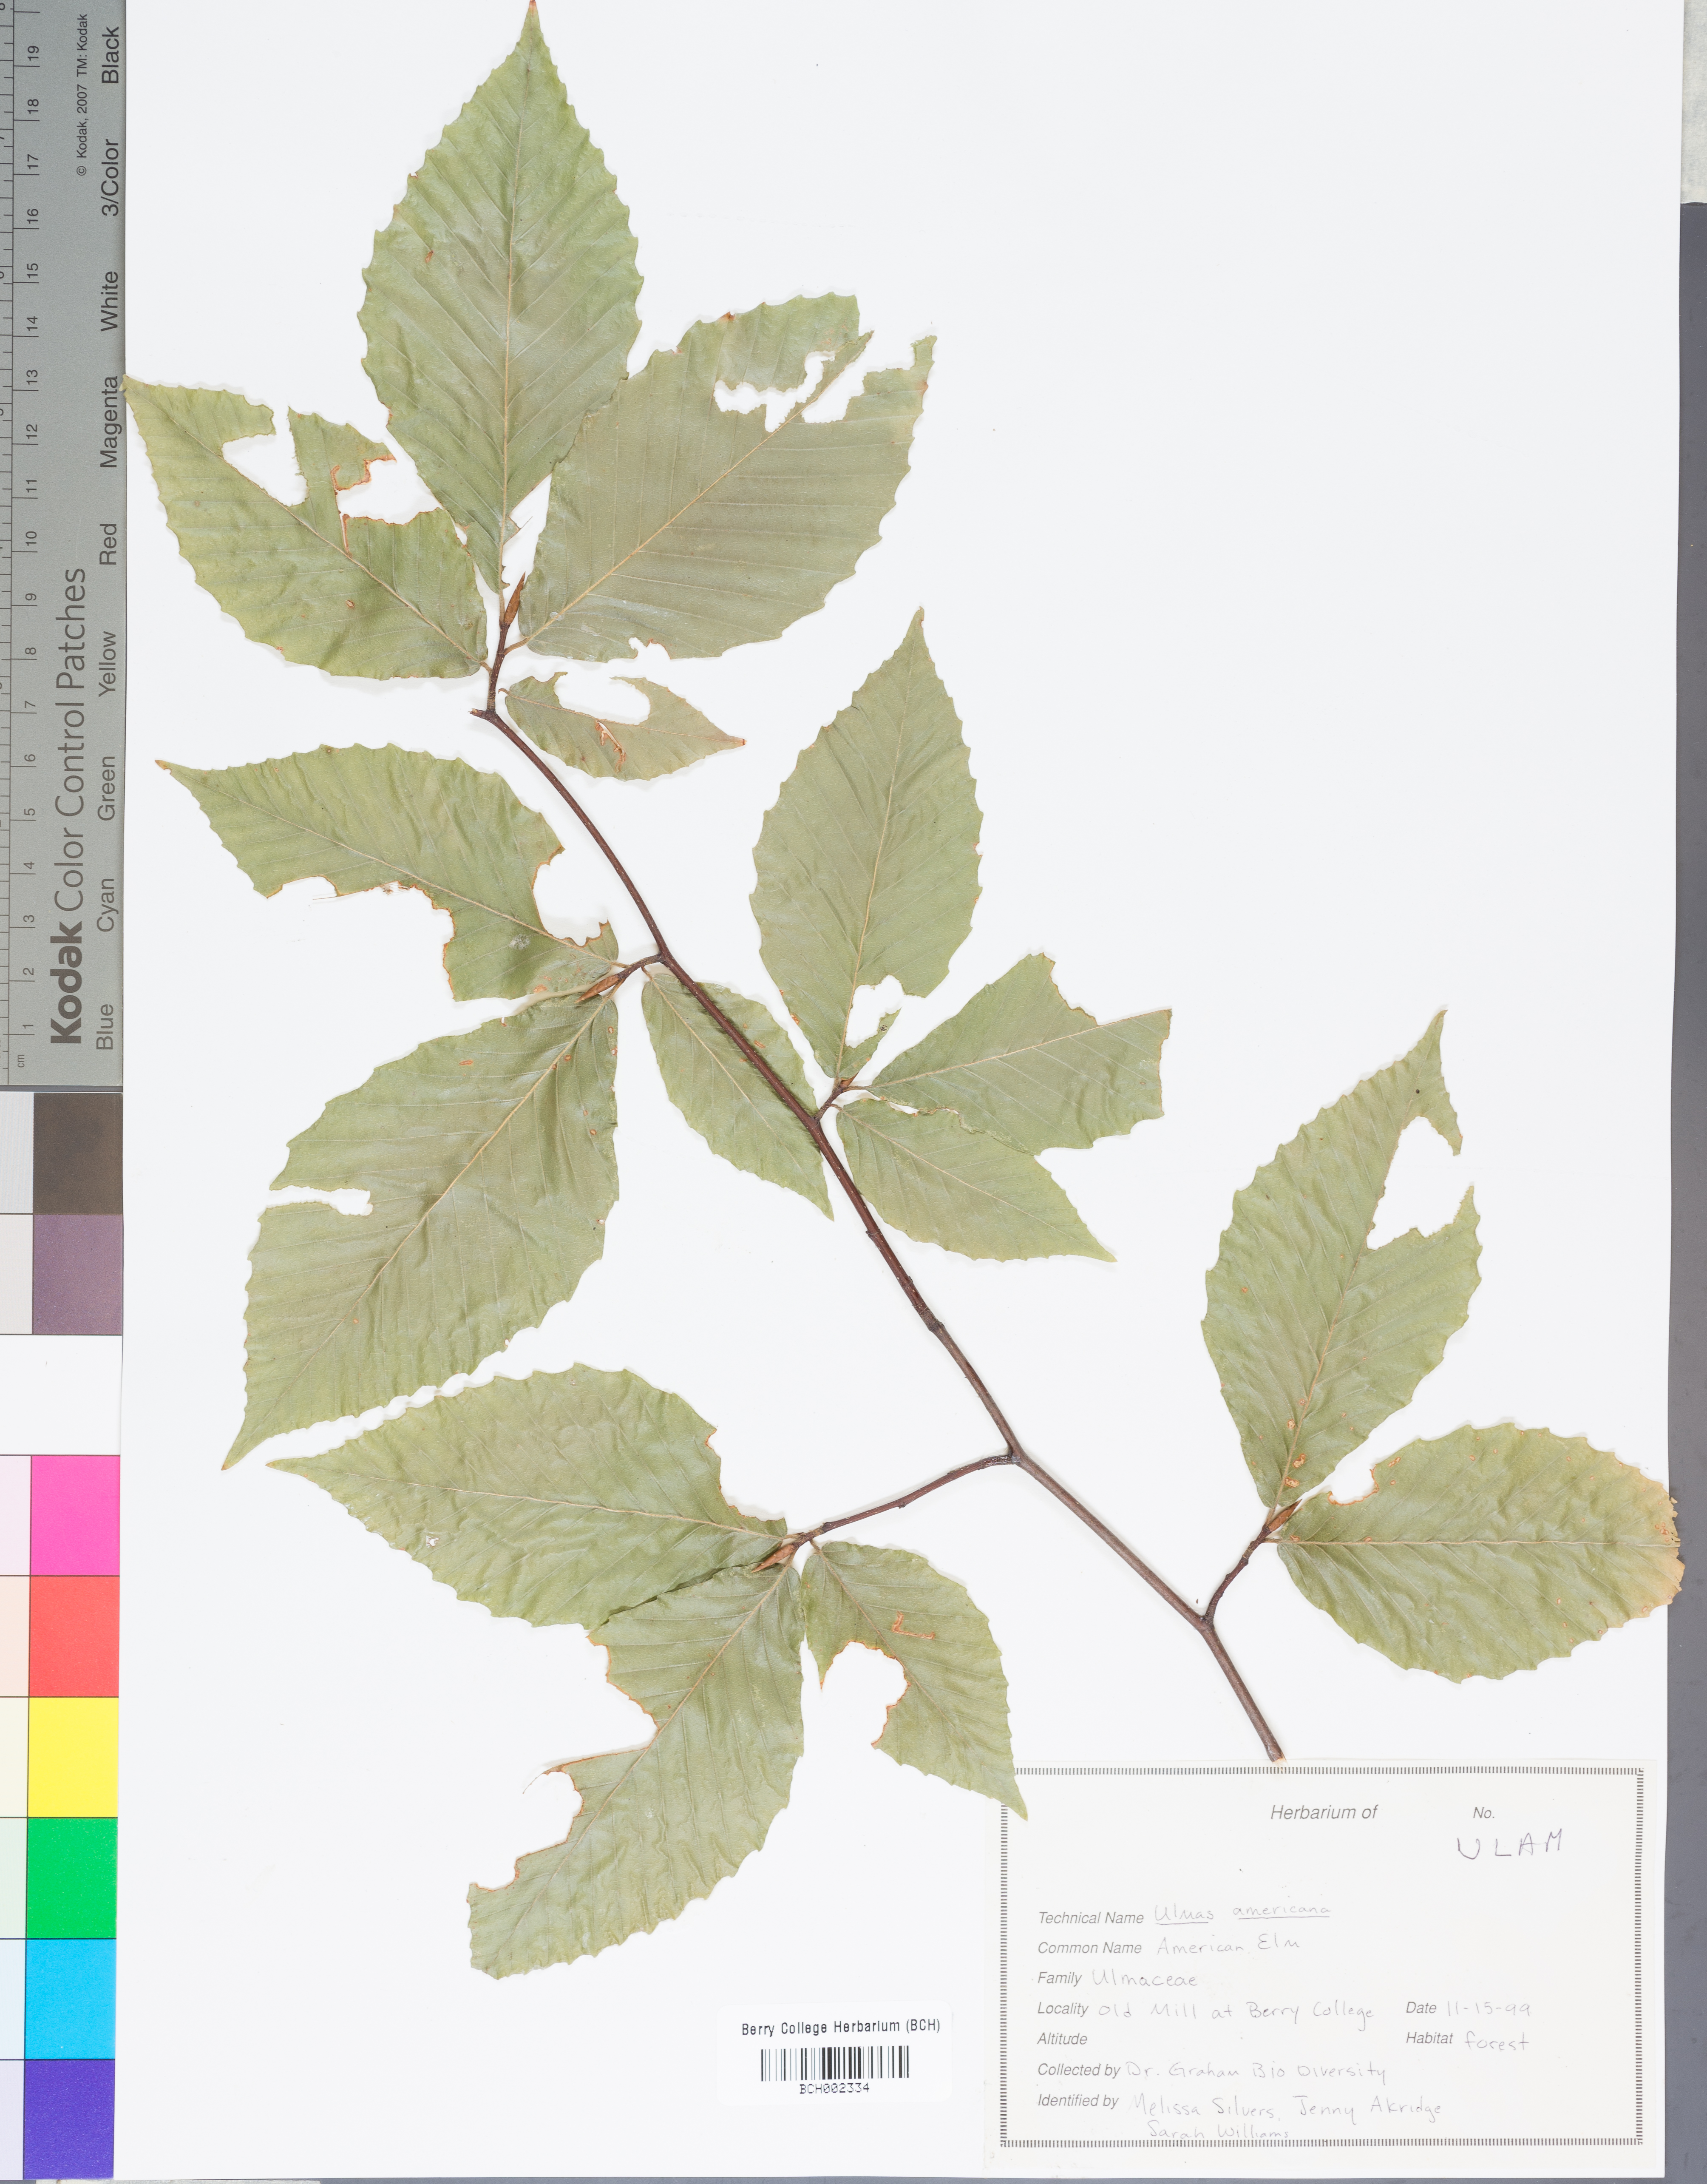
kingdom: Plantae
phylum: Tracheophyta
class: Magnoliopsida
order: Rosales
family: Ulmaceae
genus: Ulmus
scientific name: Ulmus americana
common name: American elm
